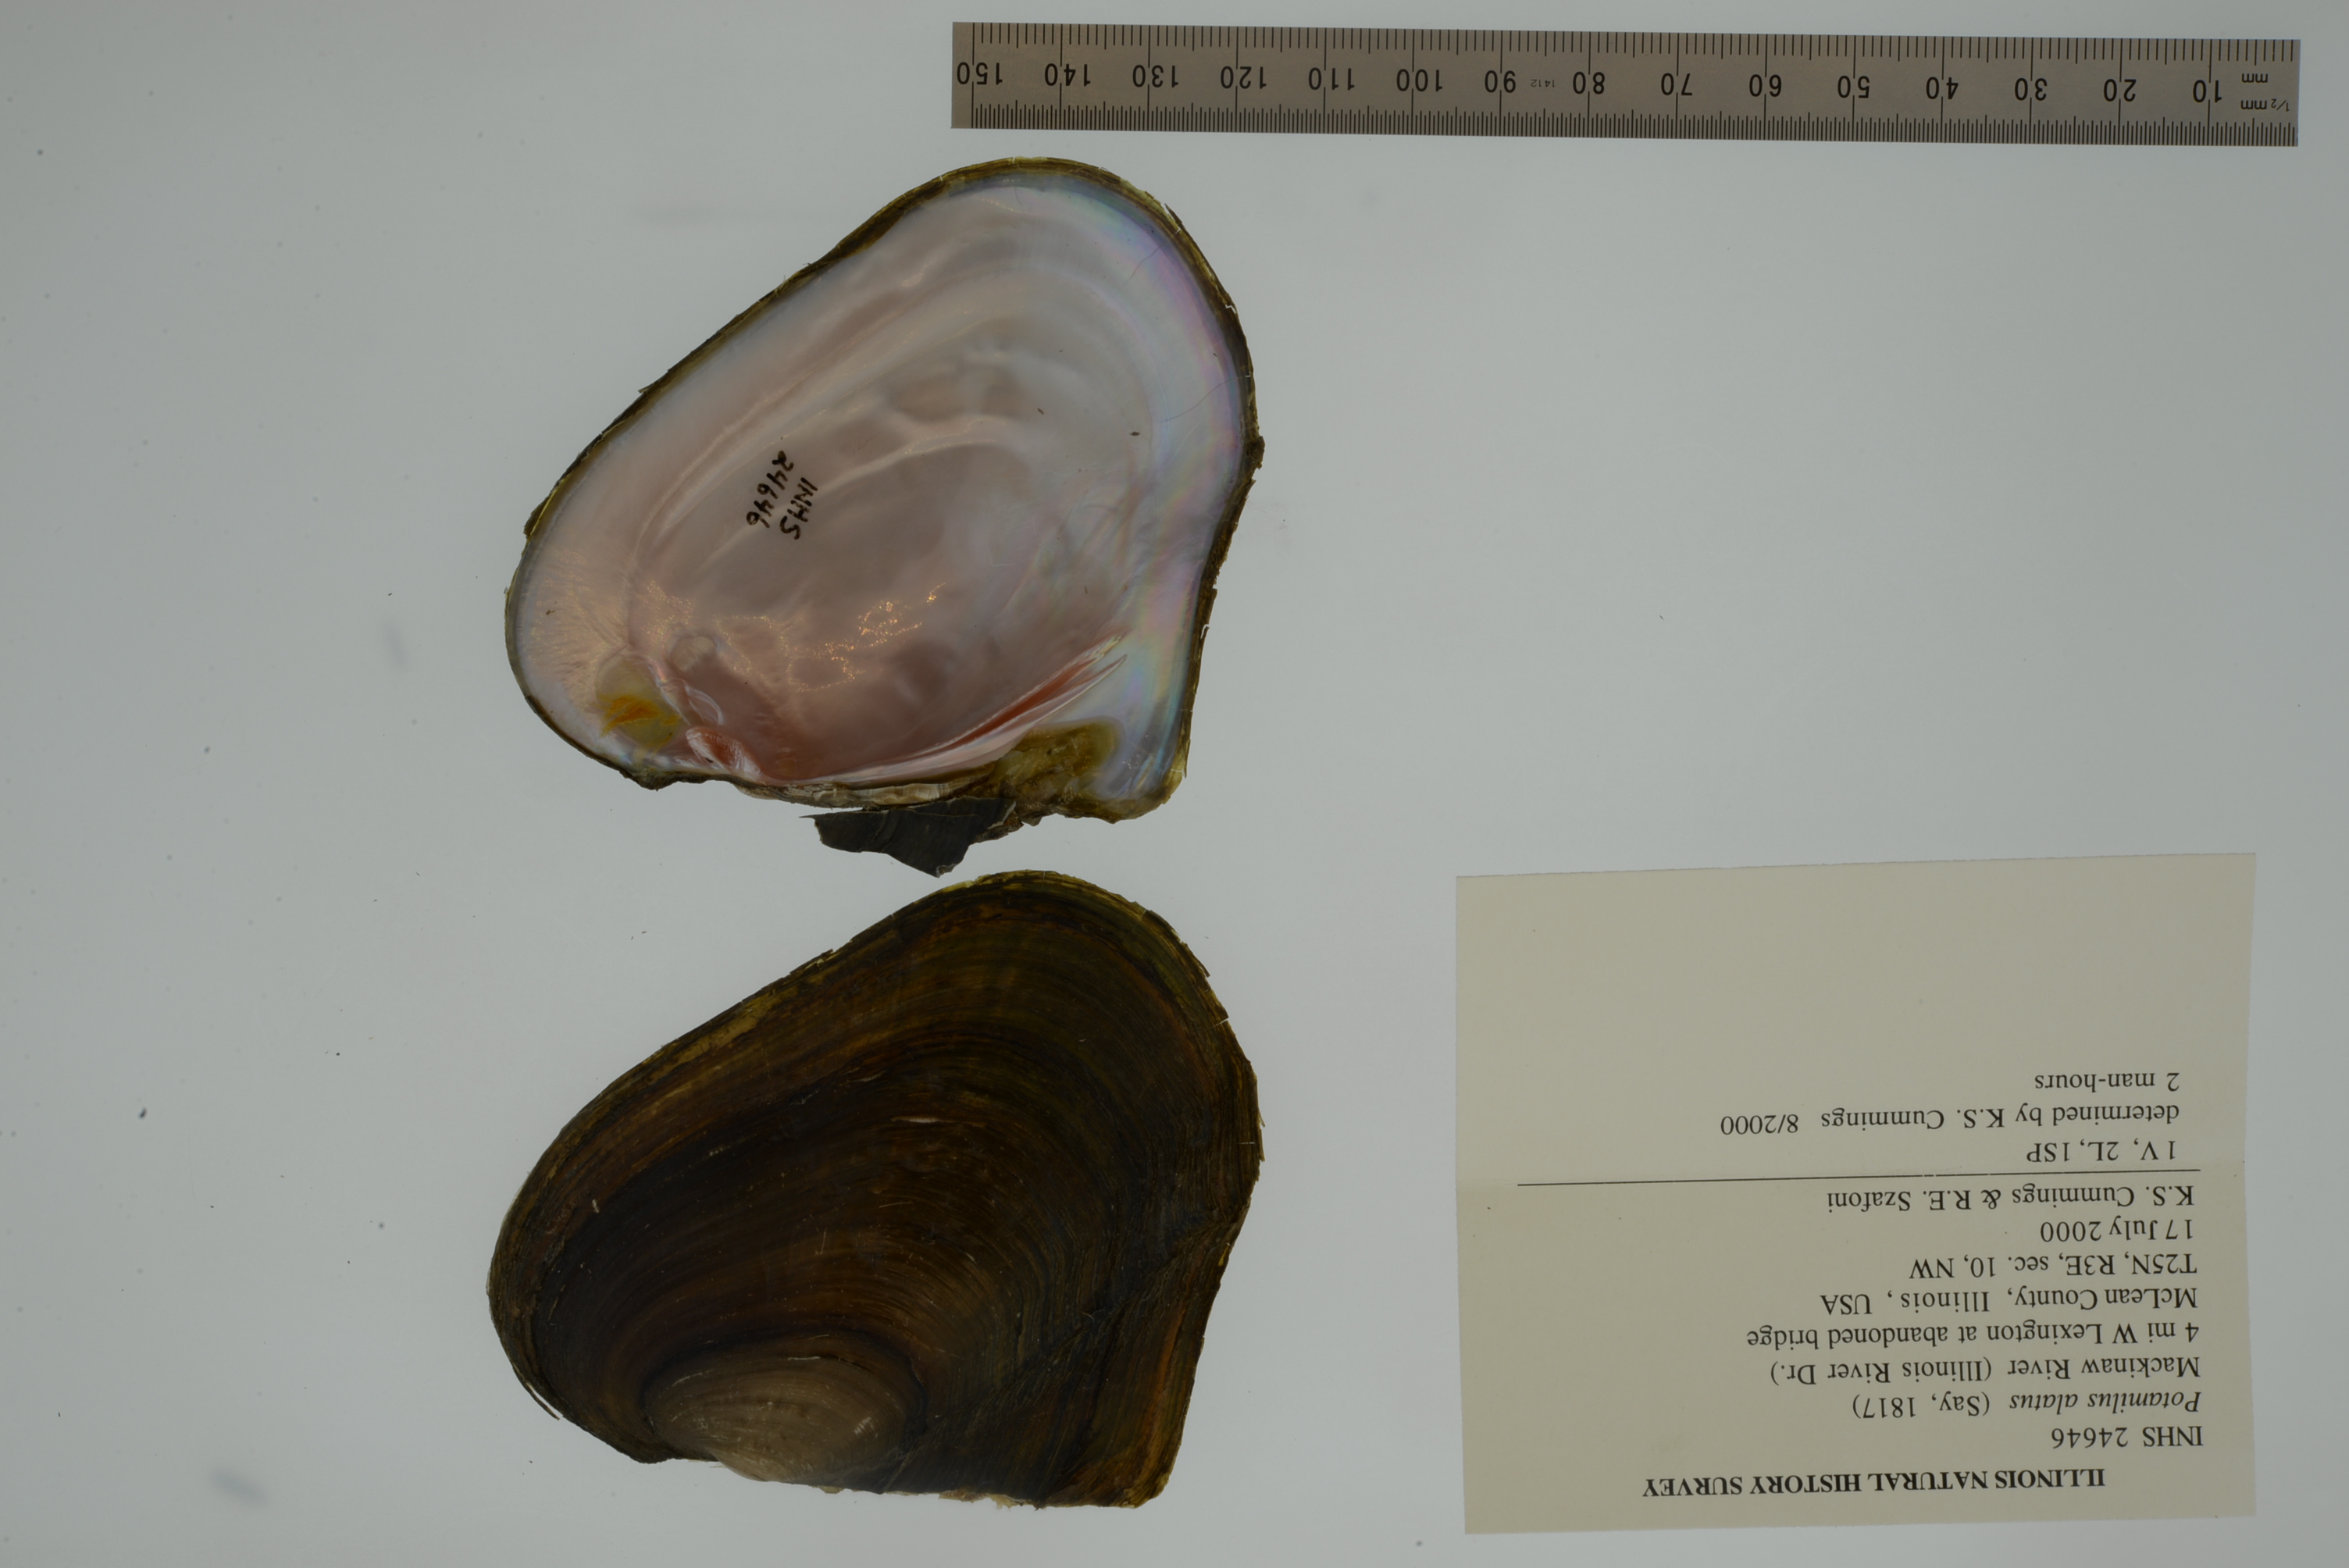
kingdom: Animalia
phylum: Mollusca
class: Bivalvia
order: Unionida
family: Unionidae
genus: Potamilus
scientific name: Potamilus alatus
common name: Pink heelsplitter
